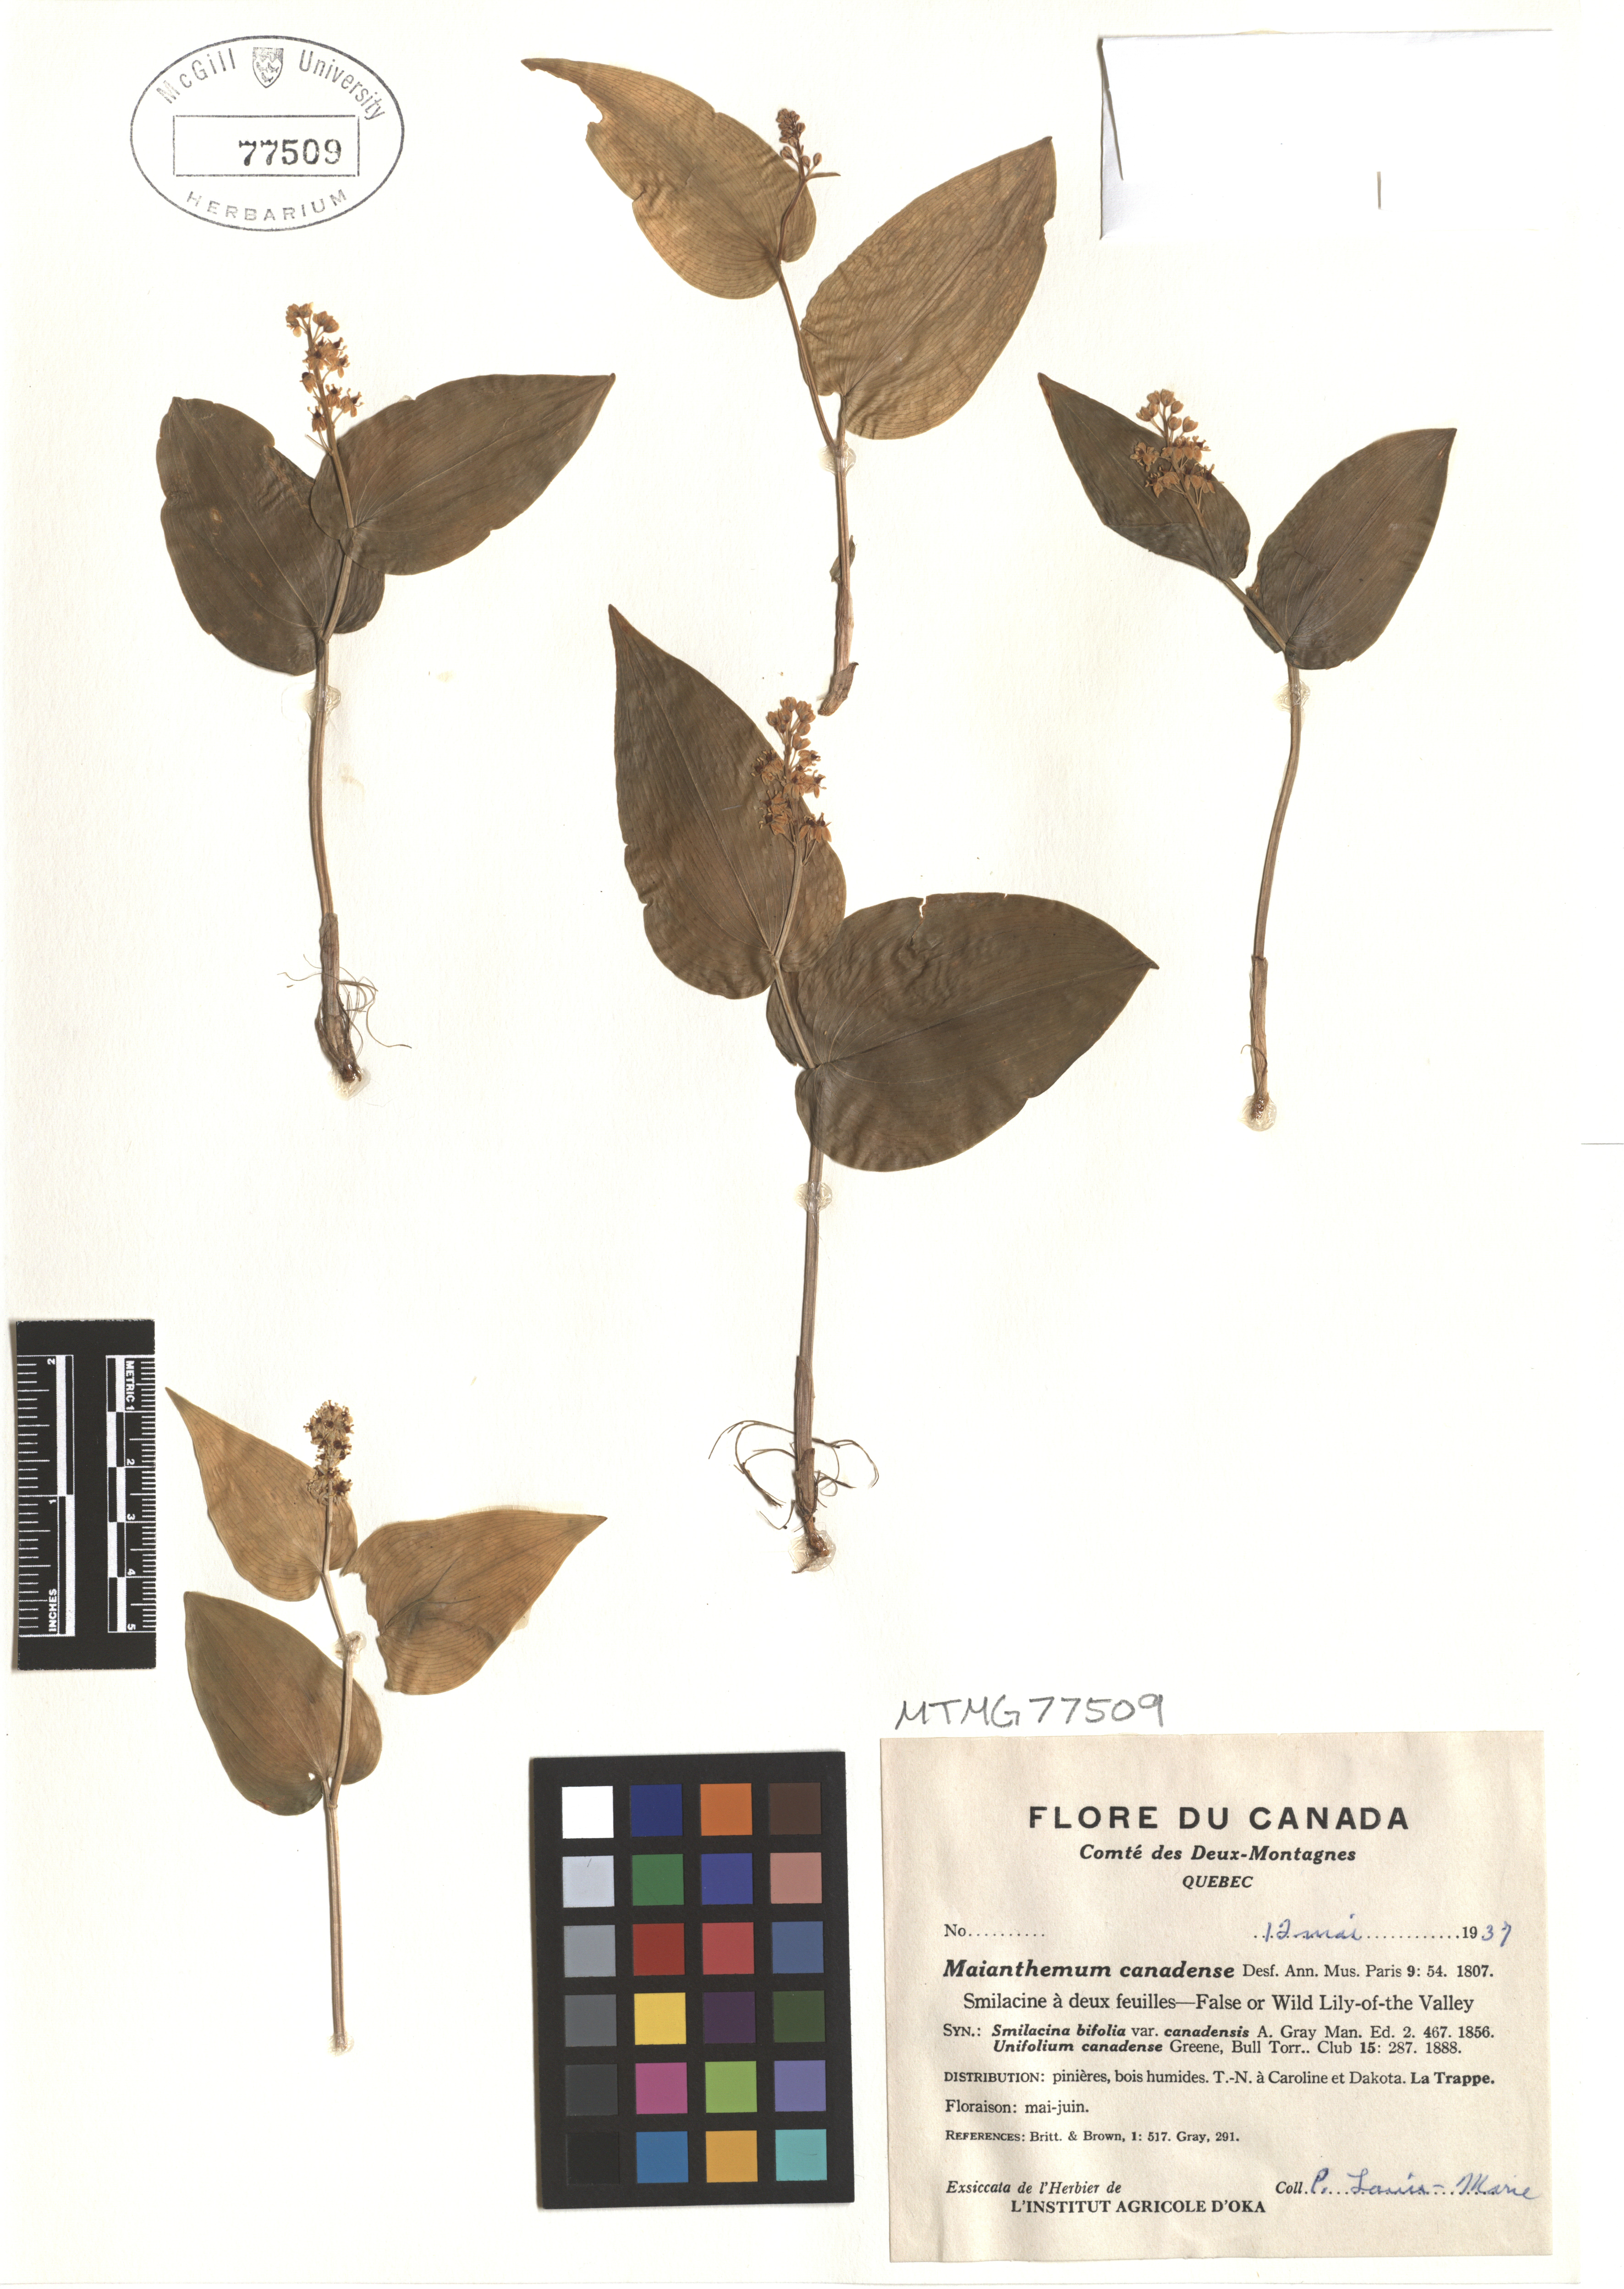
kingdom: Plantae
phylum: Tracheophyta
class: Liliopsida
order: Asparagales
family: Asparagaceae
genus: Maianthemum
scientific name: Maianthemum canadense
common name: False lily-of-the-valley
